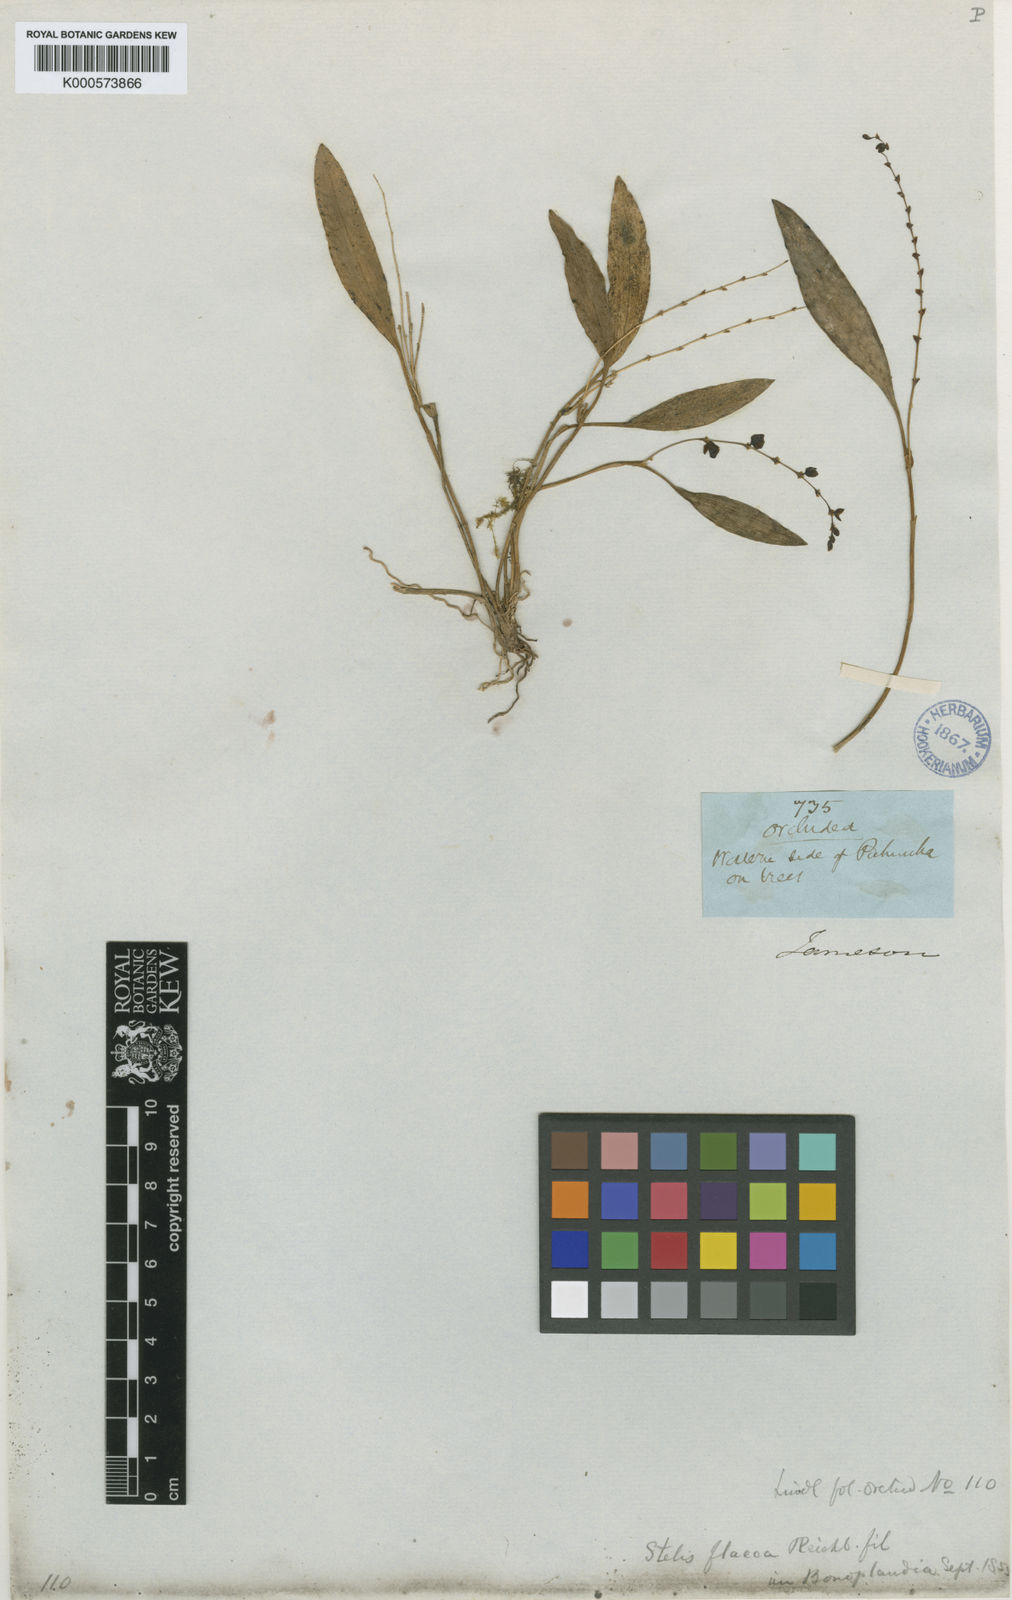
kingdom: Plantae
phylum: Tracheophyta
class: Liliopsida
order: Asparagales
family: Orchidaceae
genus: Stelis
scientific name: Stelis flacca
